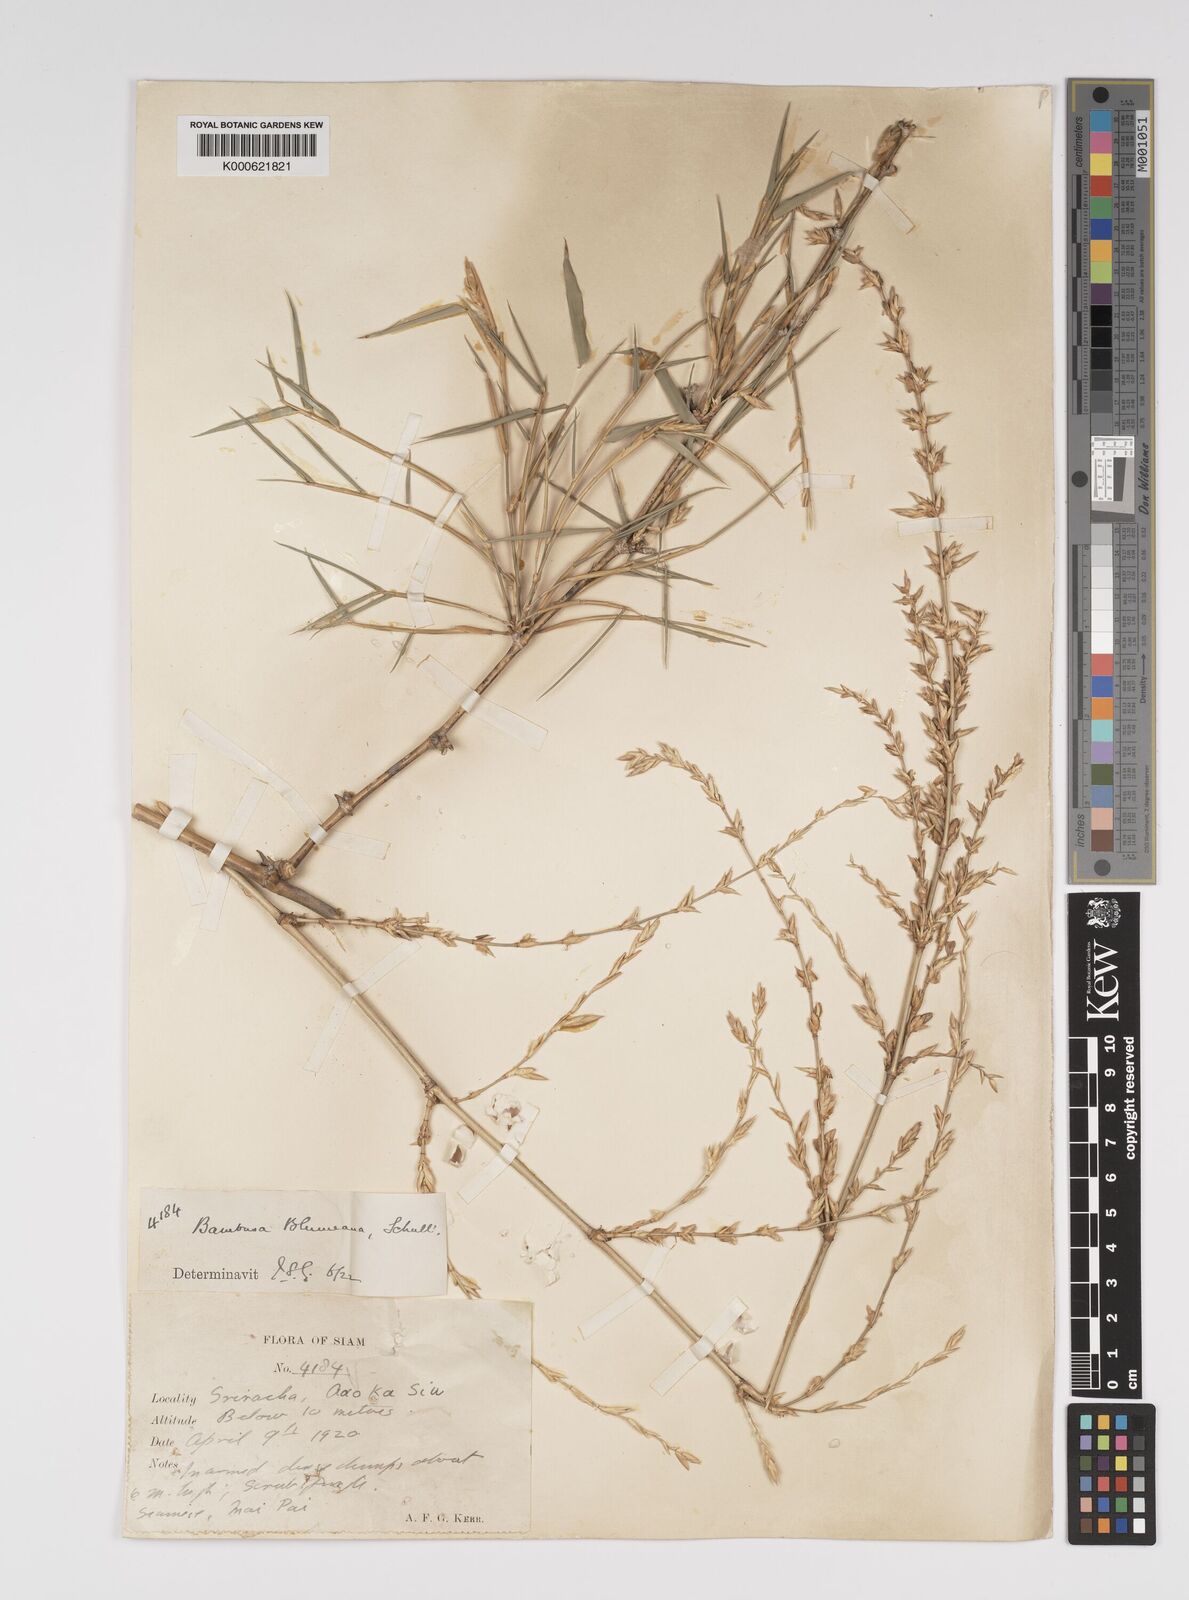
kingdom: Plantae
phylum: Tracheophyta
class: Liliopsida
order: Poales
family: Poaceae
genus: Bambusa
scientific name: Bambusa spinosa
